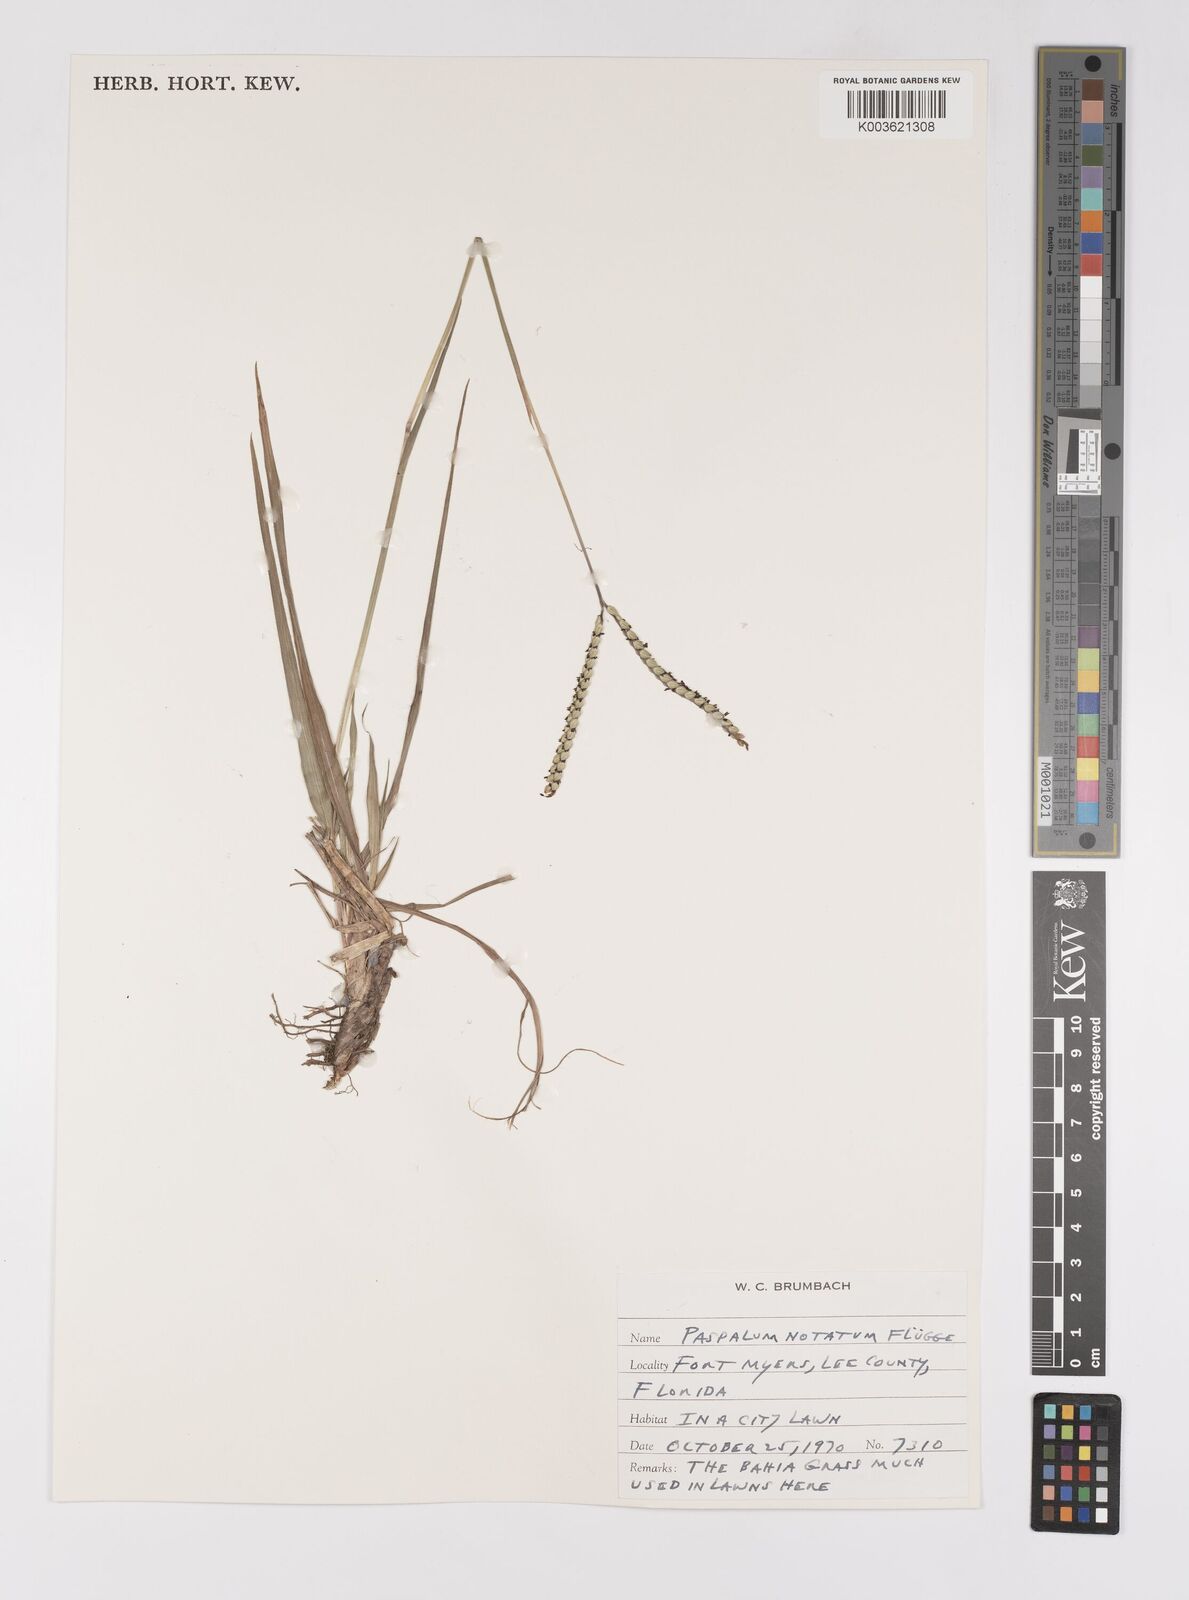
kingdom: Plantae
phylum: Tracheophyta
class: Liliopsida
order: Poales
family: Poaceae
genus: Paspalum
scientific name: Paspalum notatum
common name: Bahiagrass
